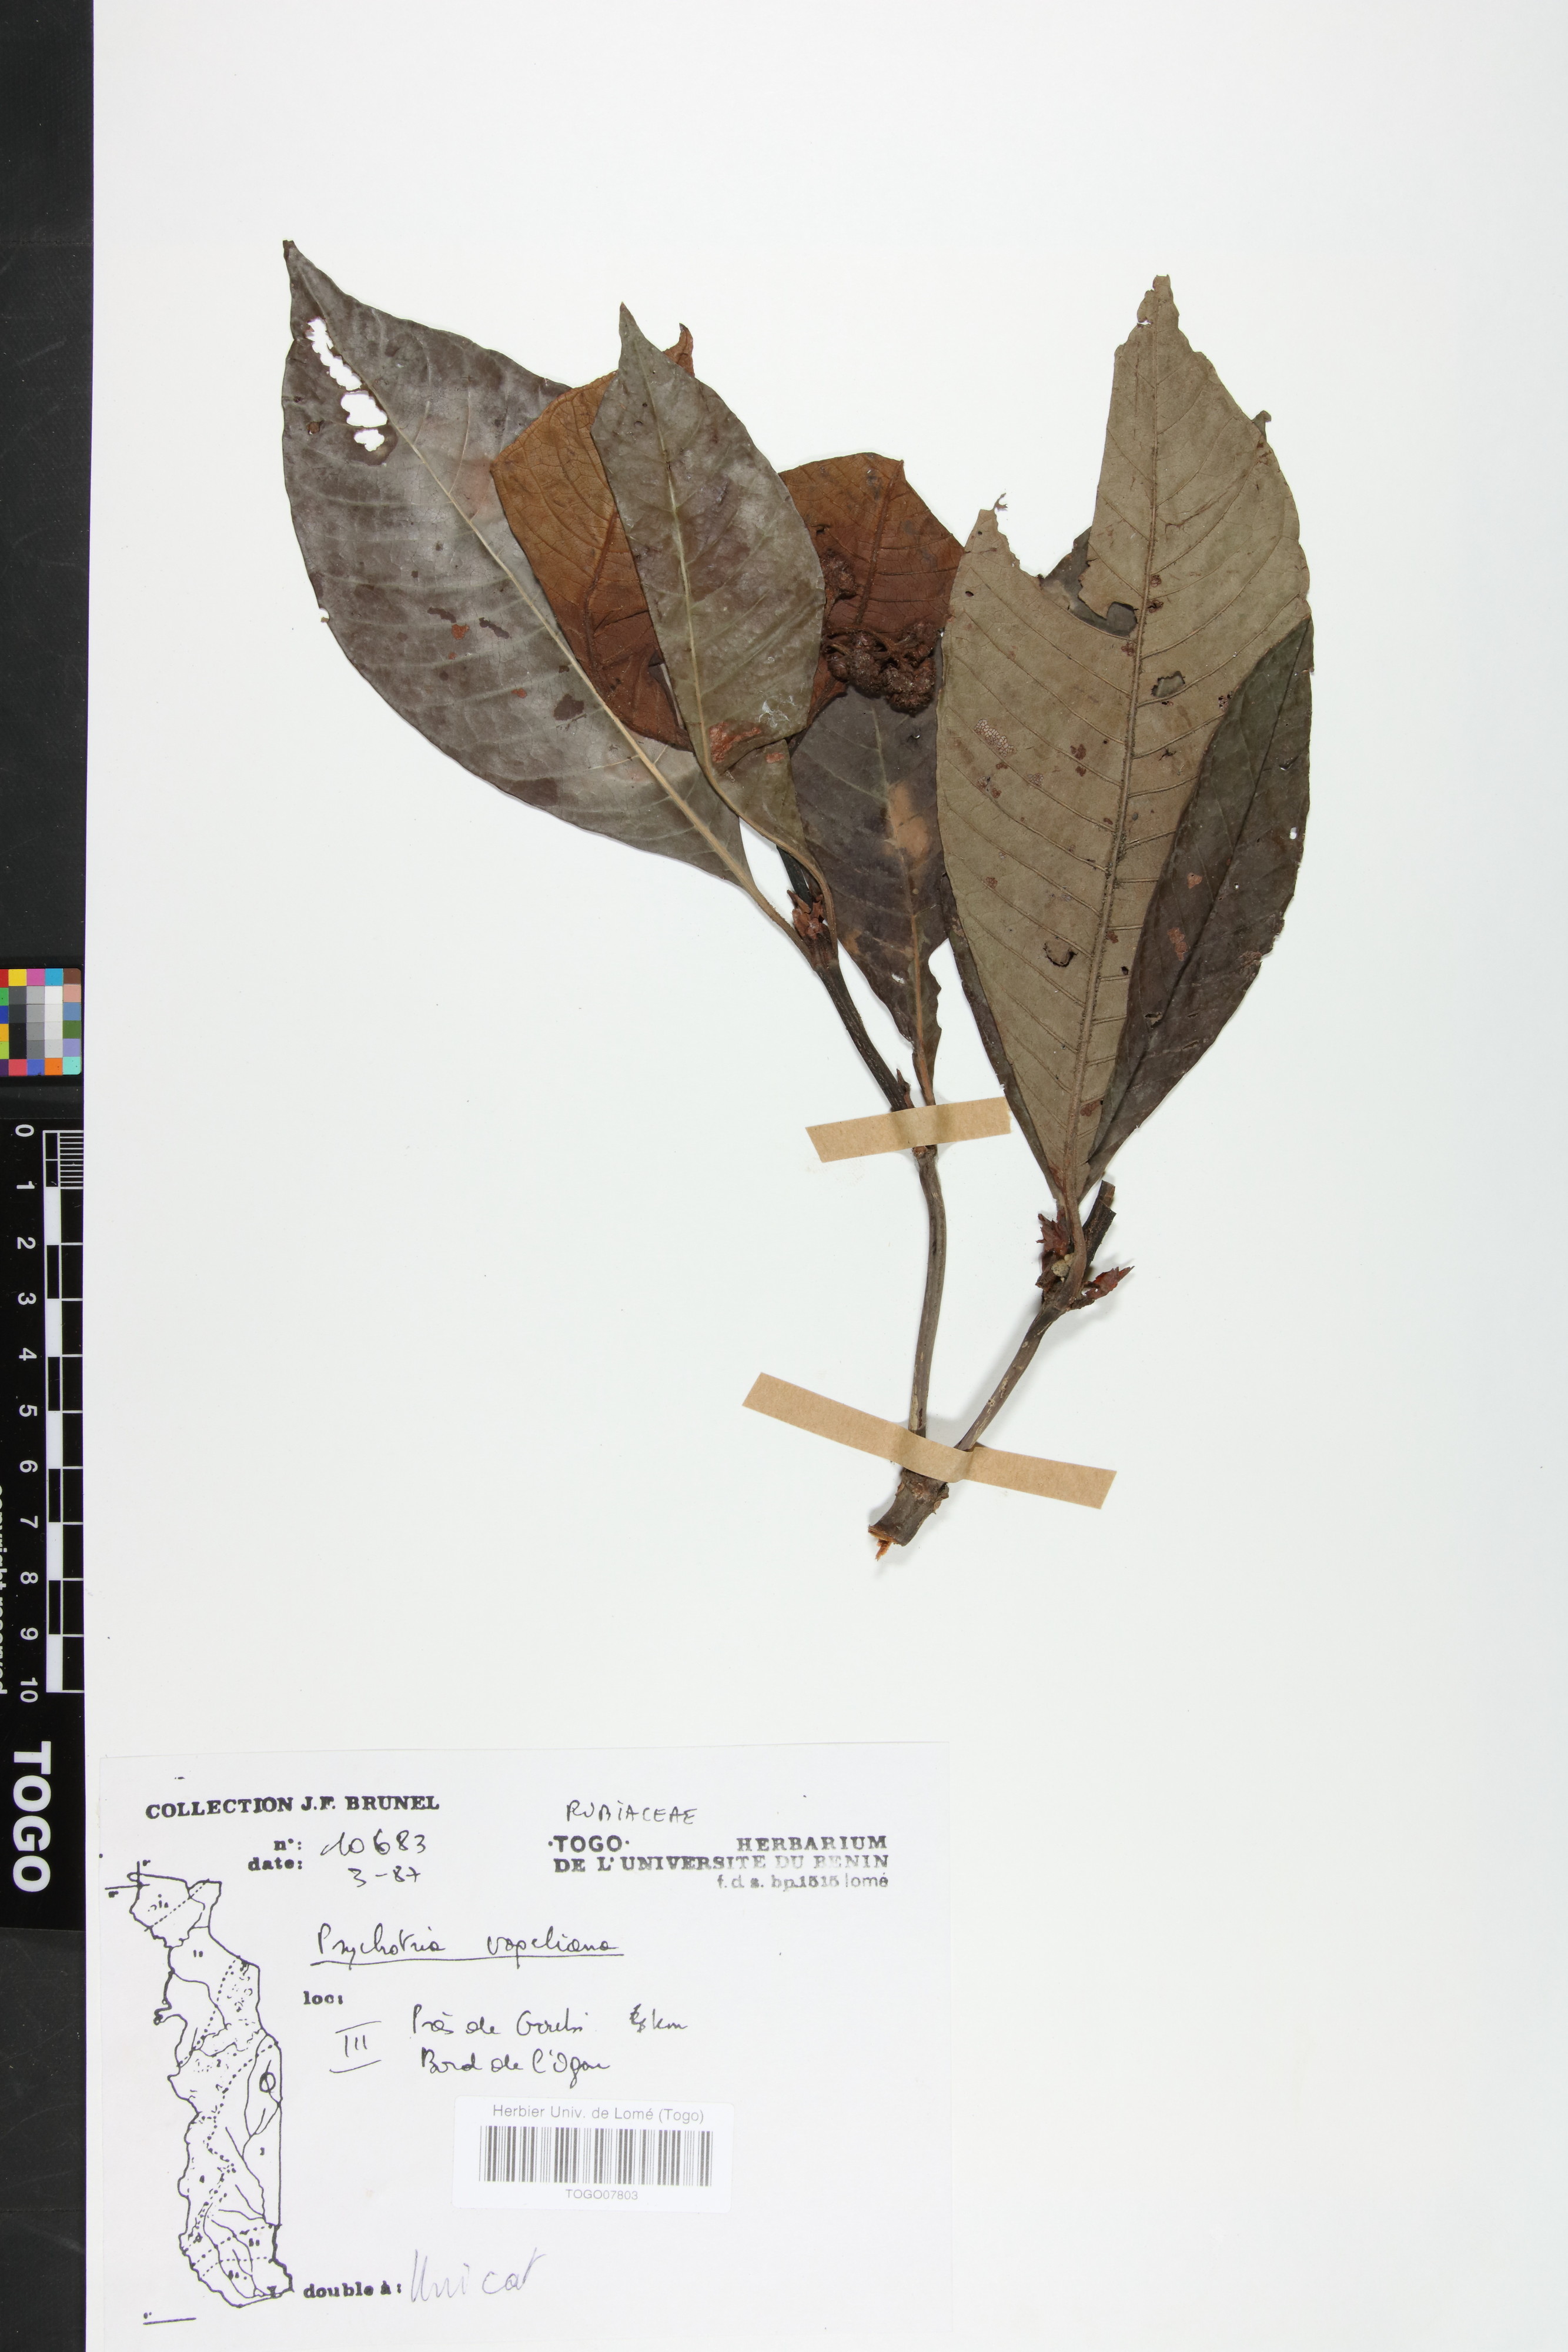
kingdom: Plantae
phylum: Tracheophyta
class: Magnoliopsida
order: Gentianales
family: Rubiaceae
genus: Psychotria
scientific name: Psychotria vogeliana
